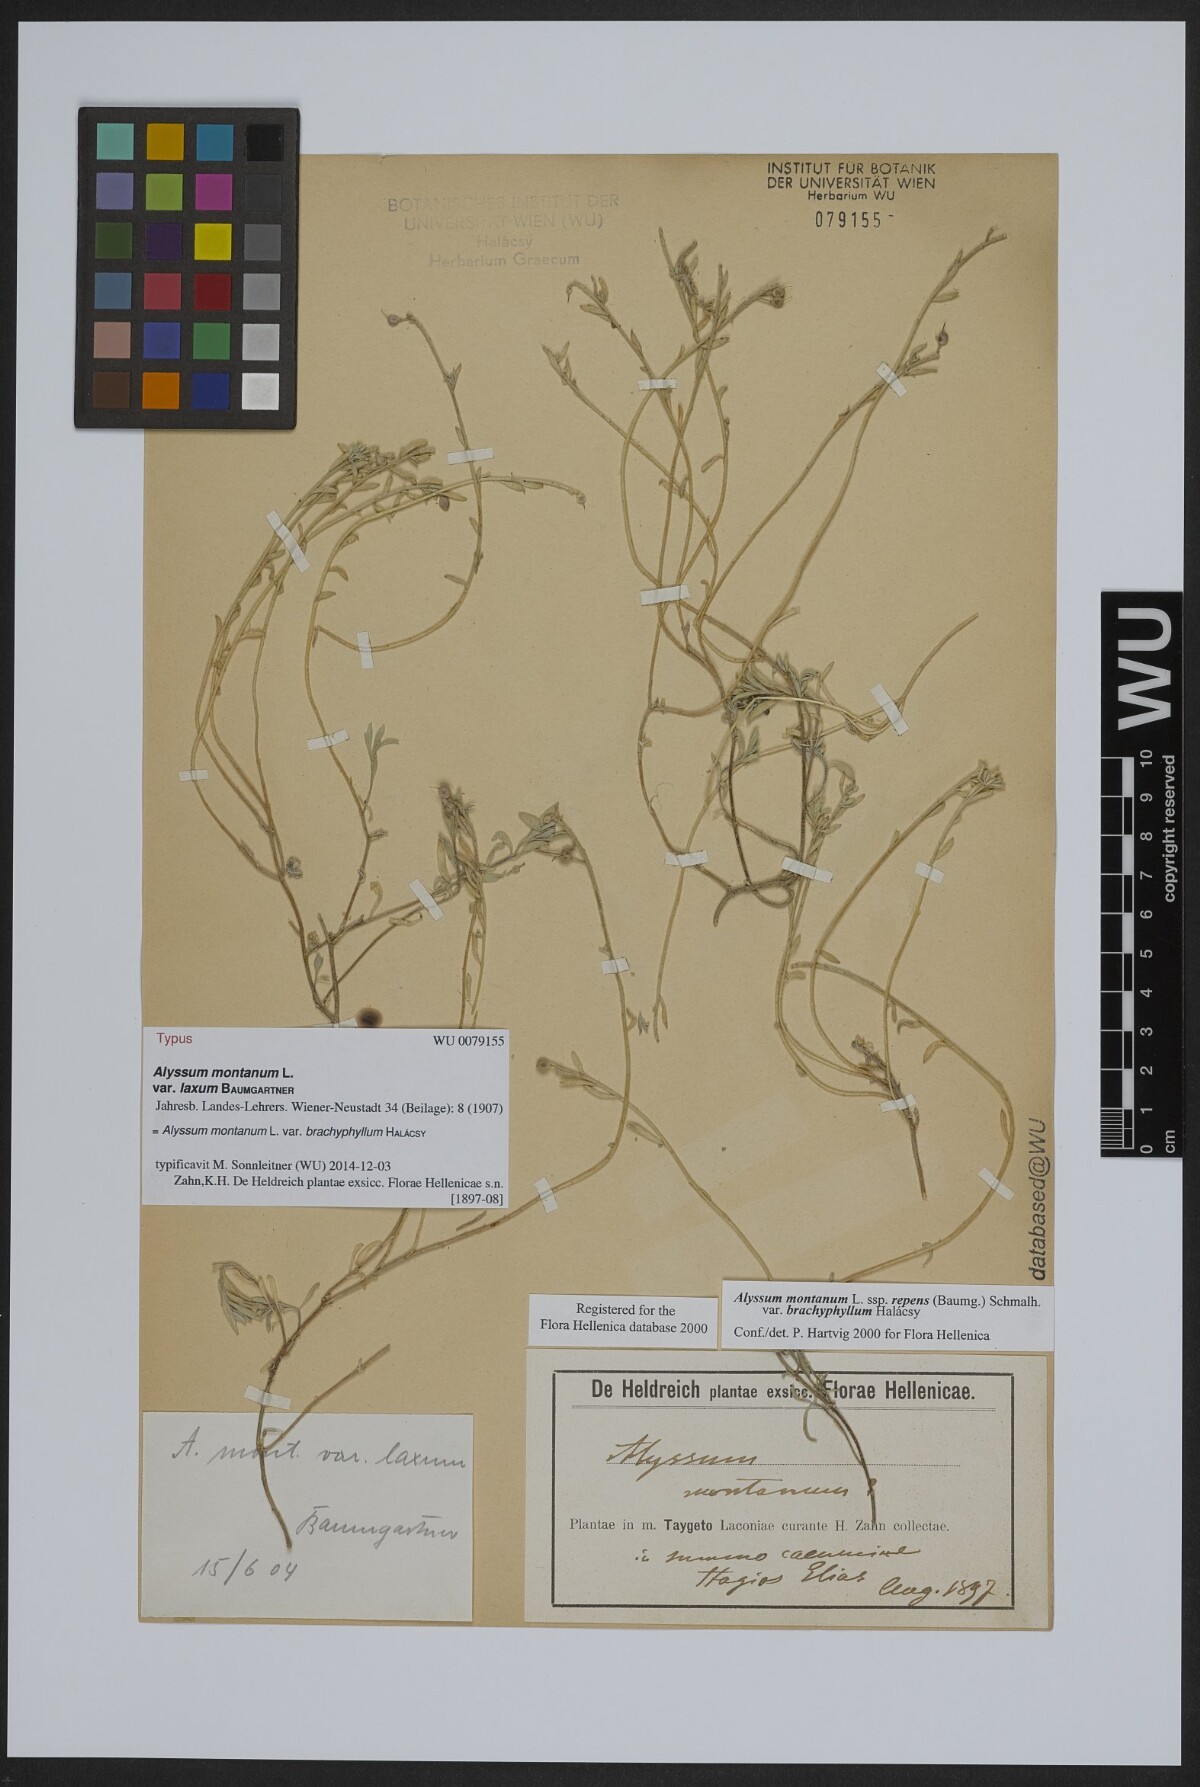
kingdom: Plantae
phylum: Tracheophyta
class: Magnoliopsida
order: Brassicales
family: Brassicaceae
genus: Alyssum
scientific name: Alyssum montanum
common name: Mountain alison
